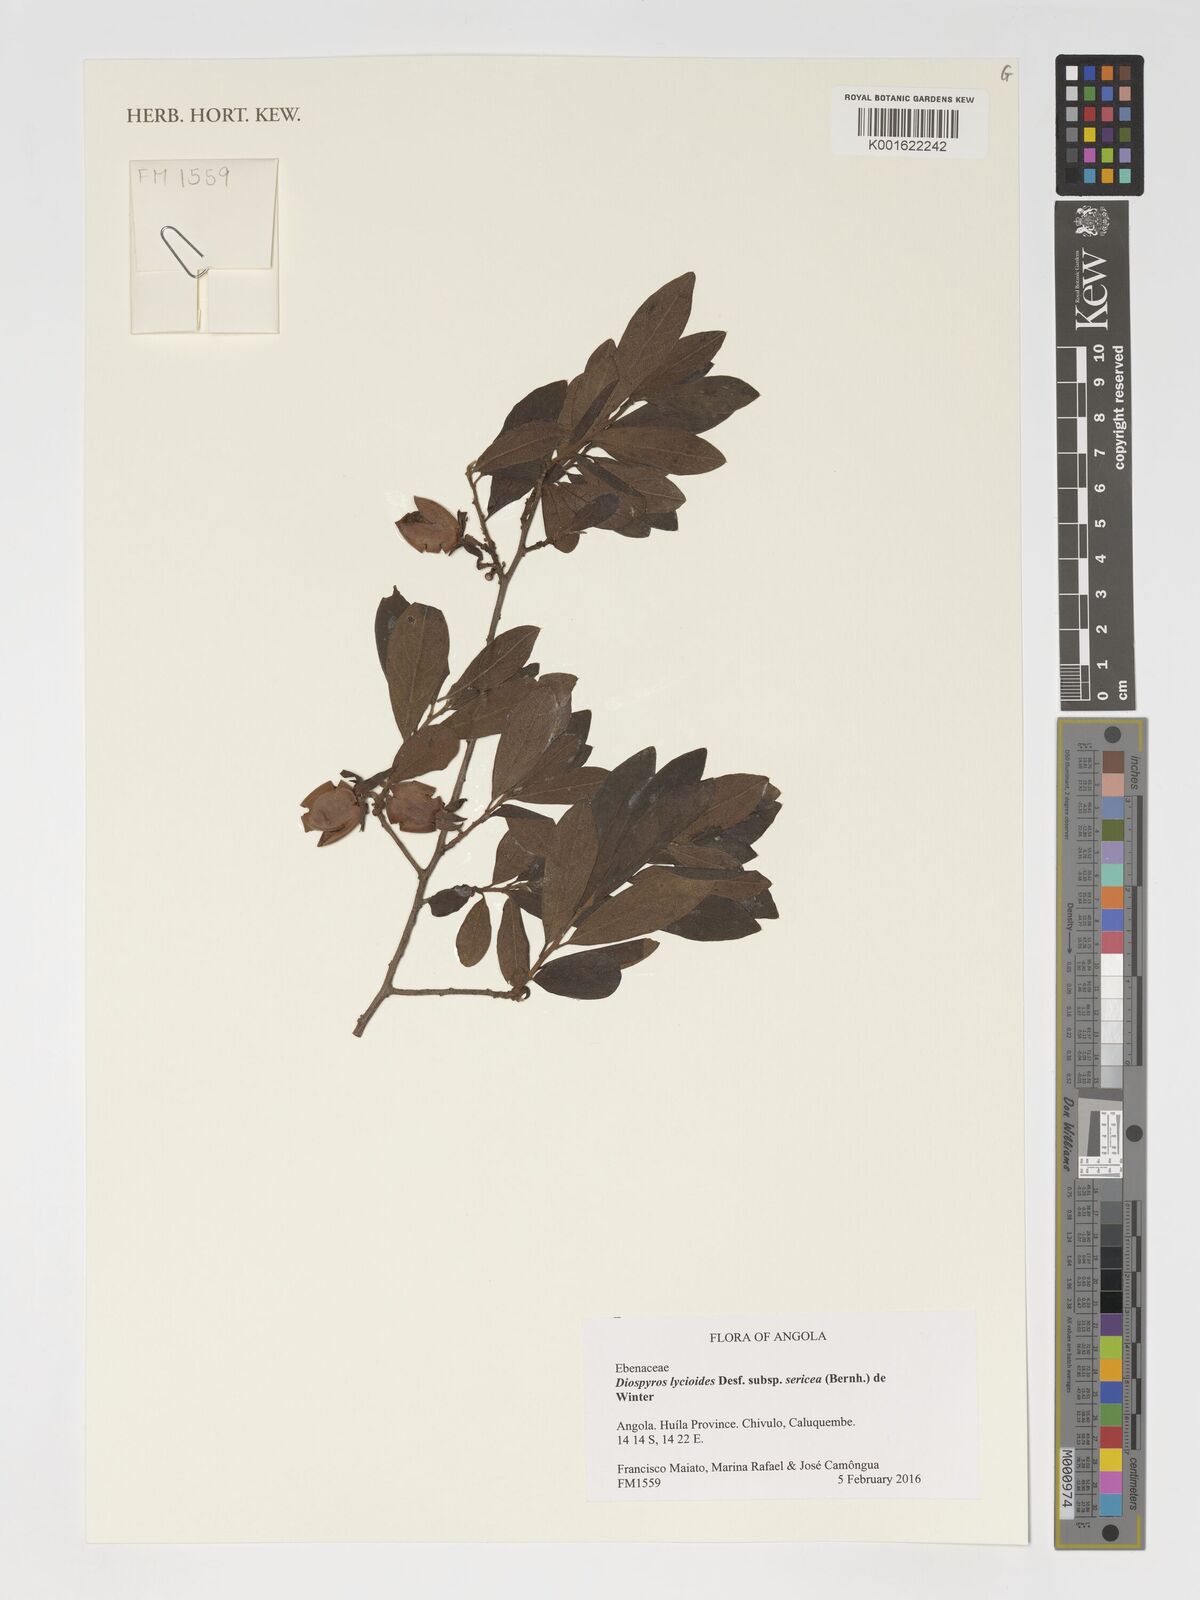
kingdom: Plantae
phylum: Tracheophyta
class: Magnoliopsida
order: Ericales
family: Ebenaceae
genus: Diospyros
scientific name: Diospyros lycioides
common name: Red star apple
